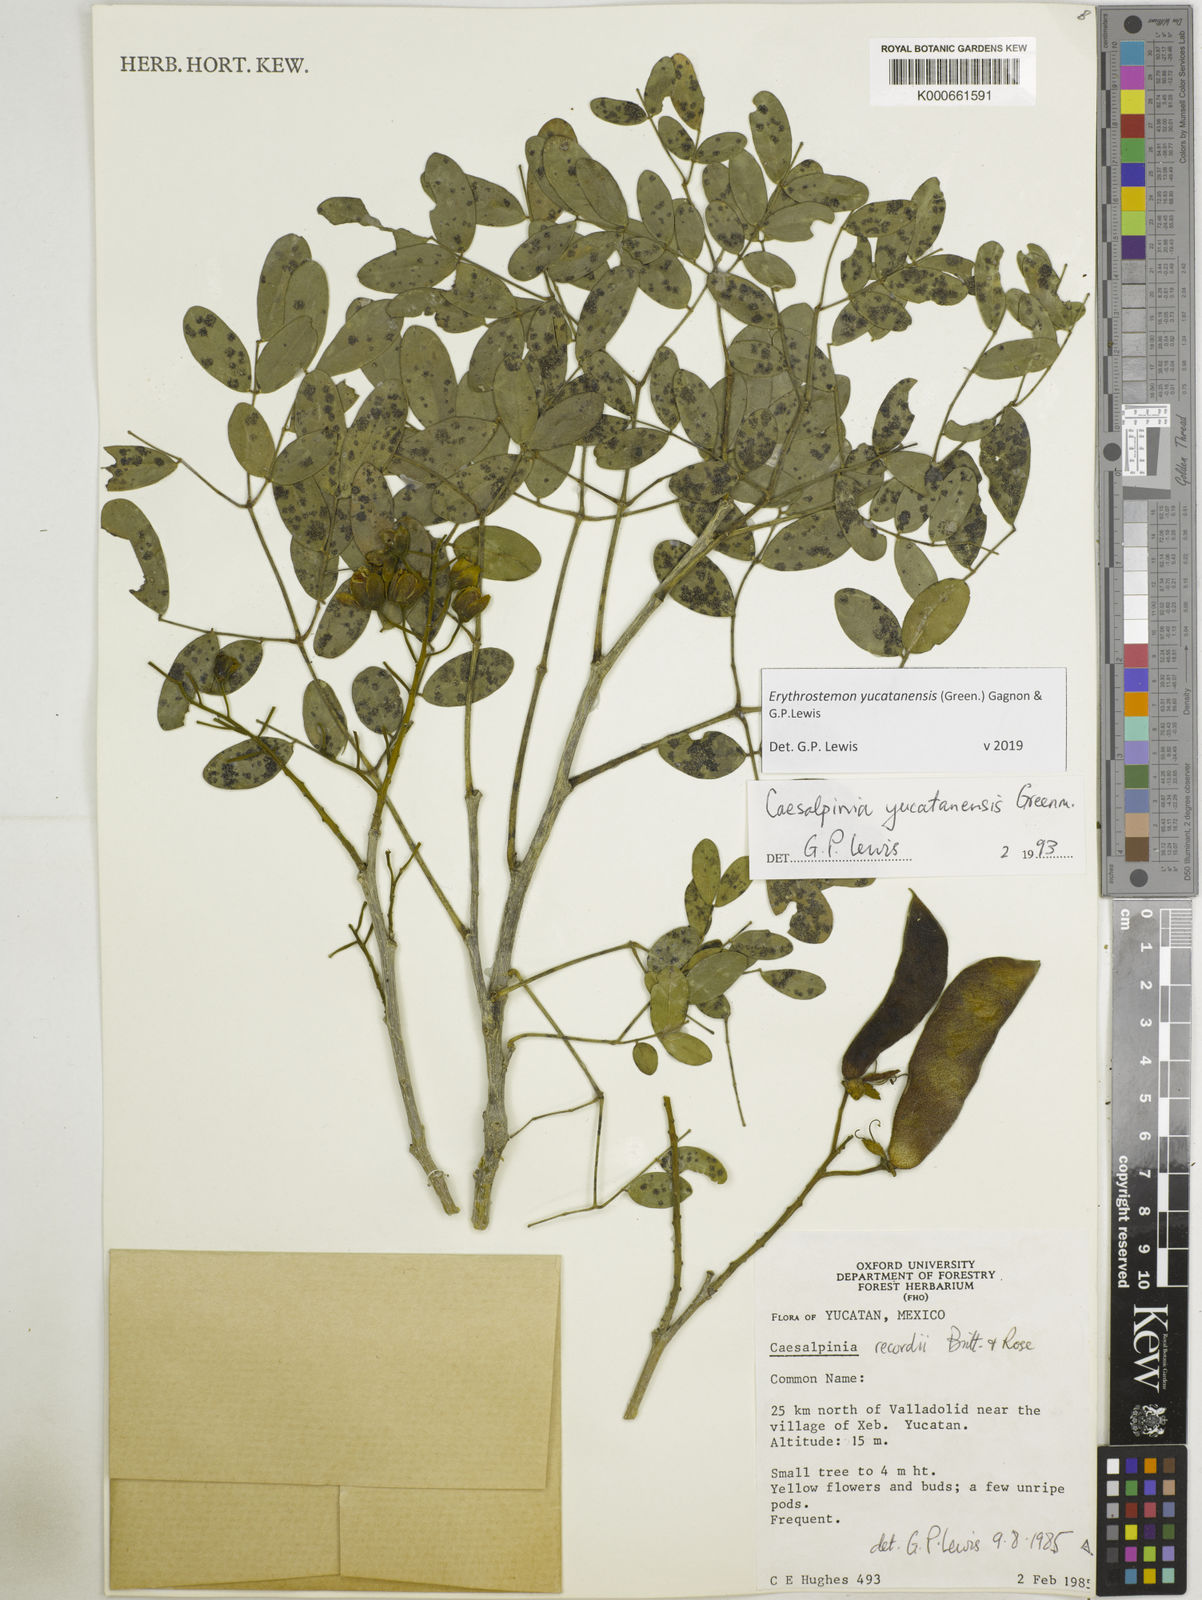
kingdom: Plantae
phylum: Tracheophyta
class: Magnoliopsida
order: Fabales
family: Fabaceae
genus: Caesalpinia
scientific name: Caesalpinia
